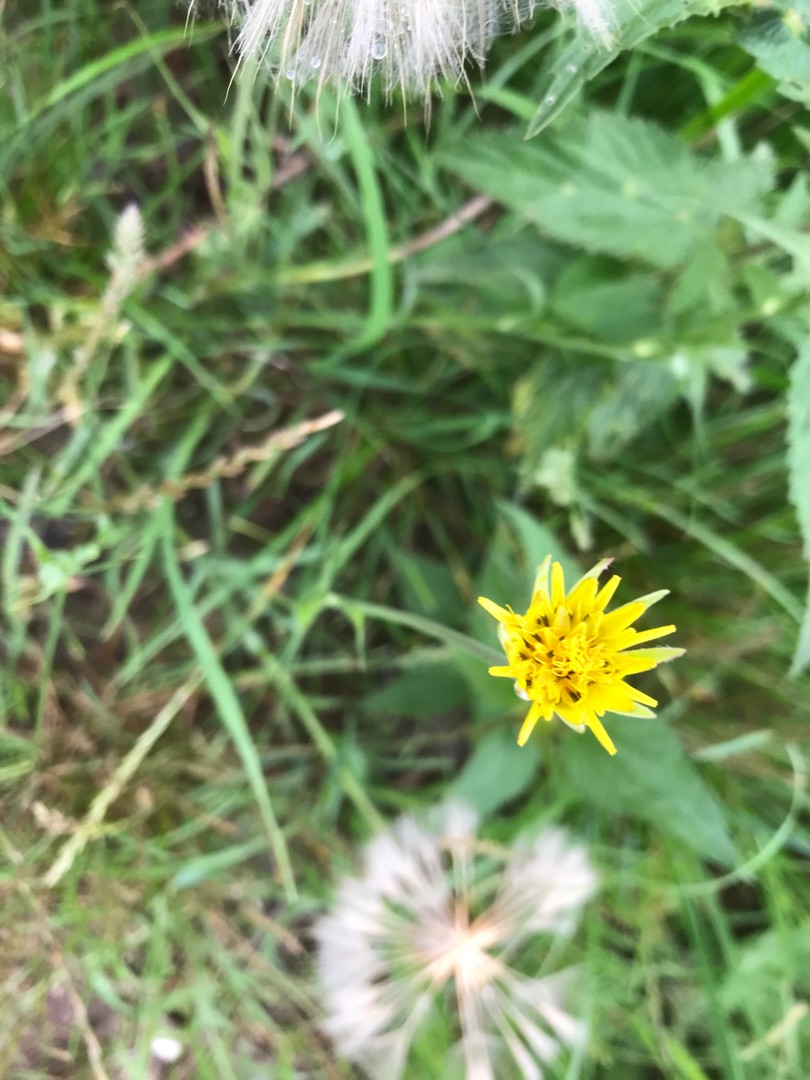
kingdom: Plantae
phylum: Tracheophyta
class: Magnoliopsida
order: Asterales
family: Asteraceae
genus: Tragopogon
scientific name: Tragopogon pratensis
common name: Gedeskæg
